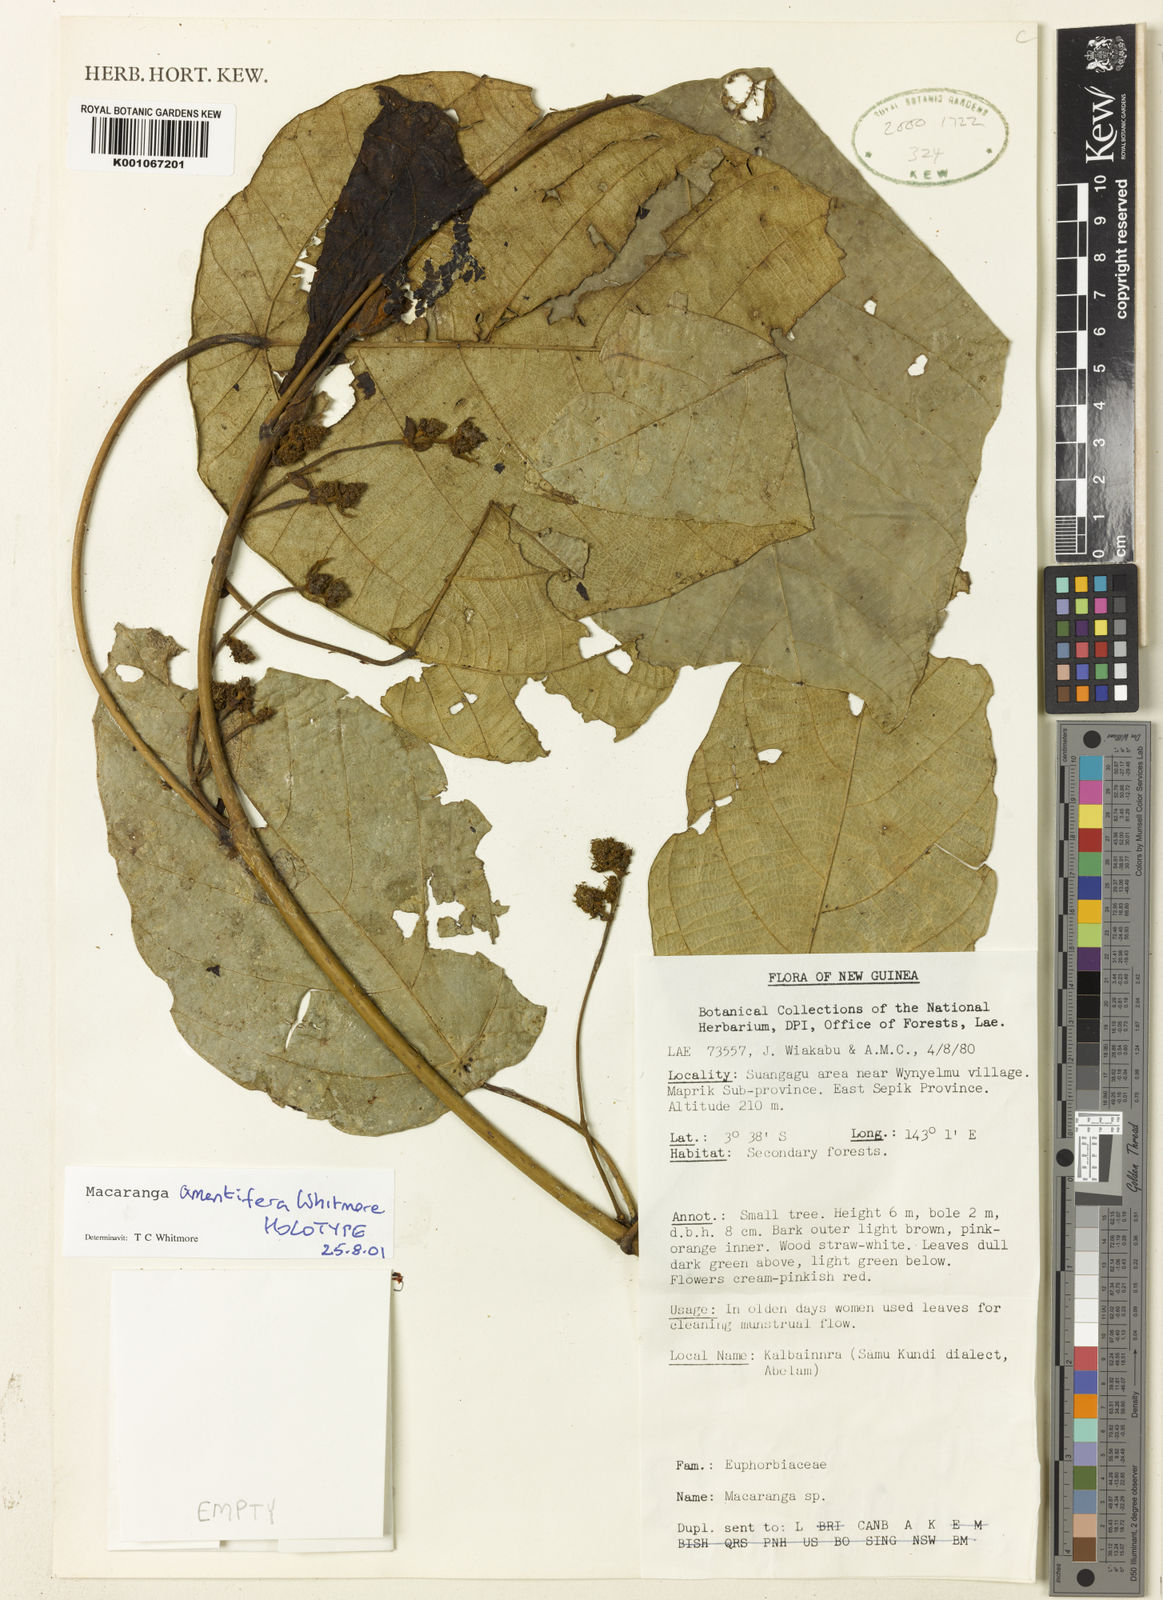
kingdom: Plantae
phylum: Tracheophyta
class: Magnoliopsida
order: Malpighiales
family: Euphorbiaceae
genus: Macaranga
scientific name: Macaranga amentifera
